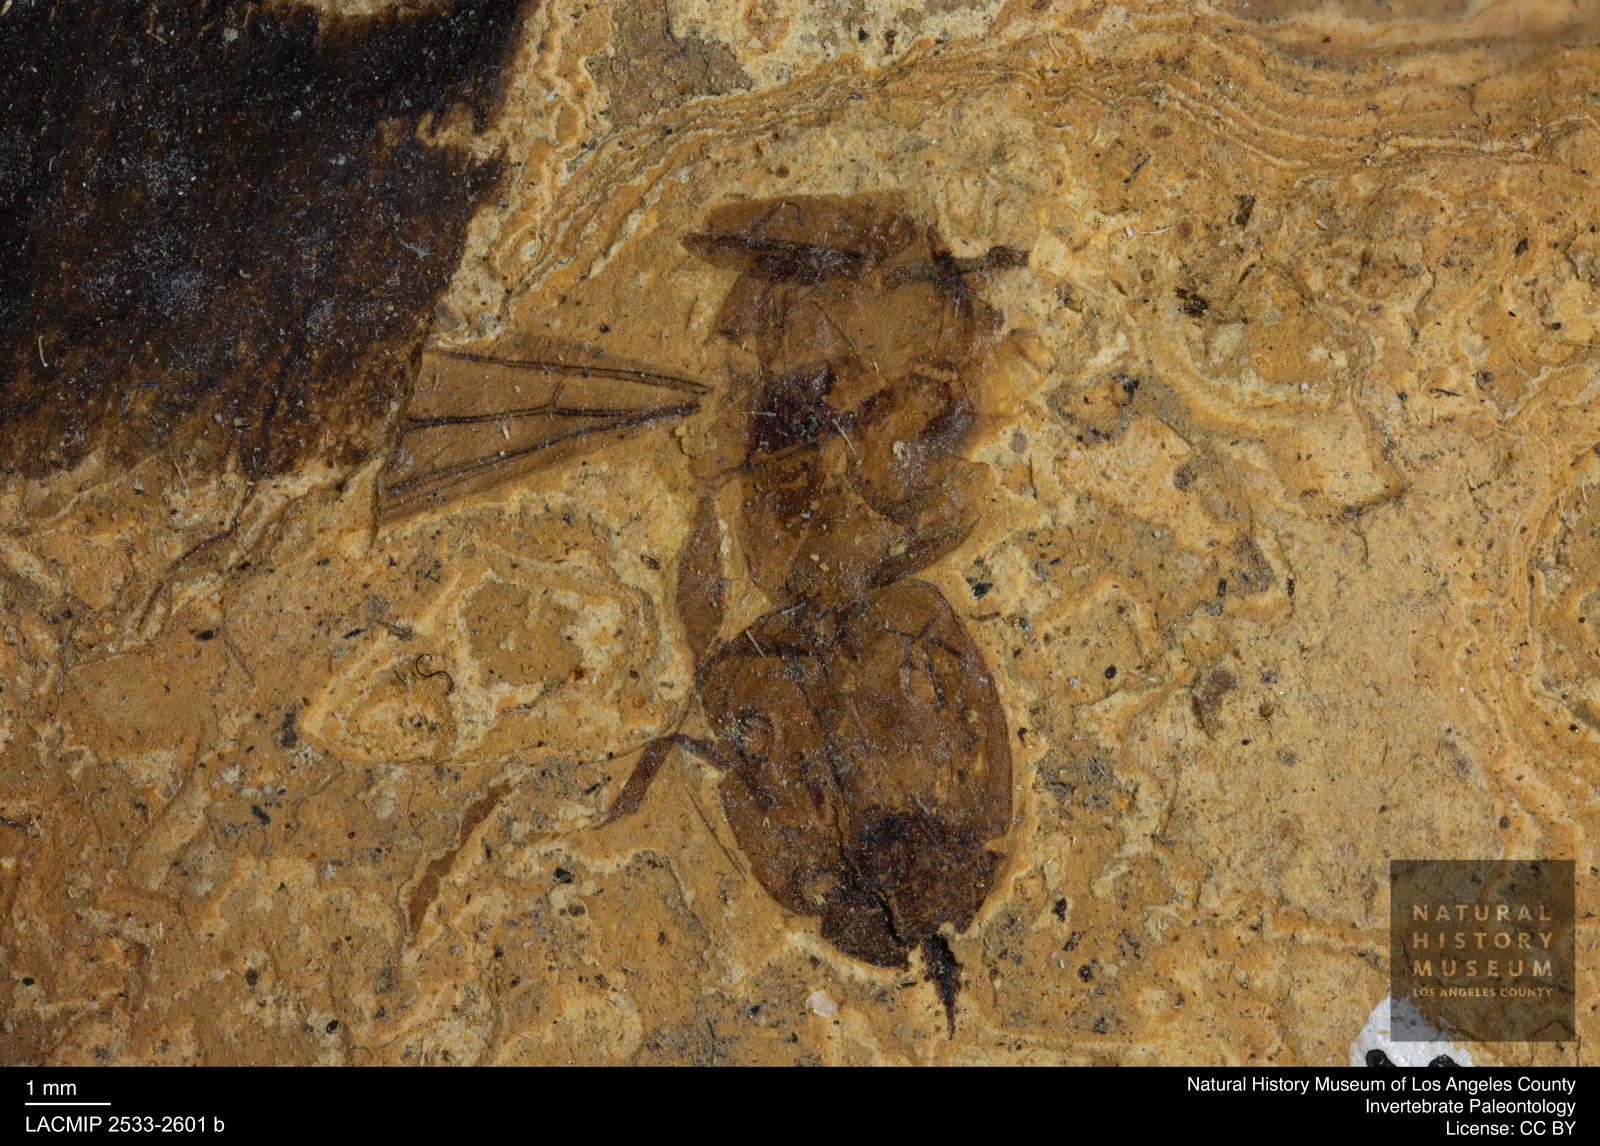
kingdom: Animalia
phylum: Arthropoda
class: Insecta
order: Hymenoptera
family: Formicidae
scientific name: Formicidae
